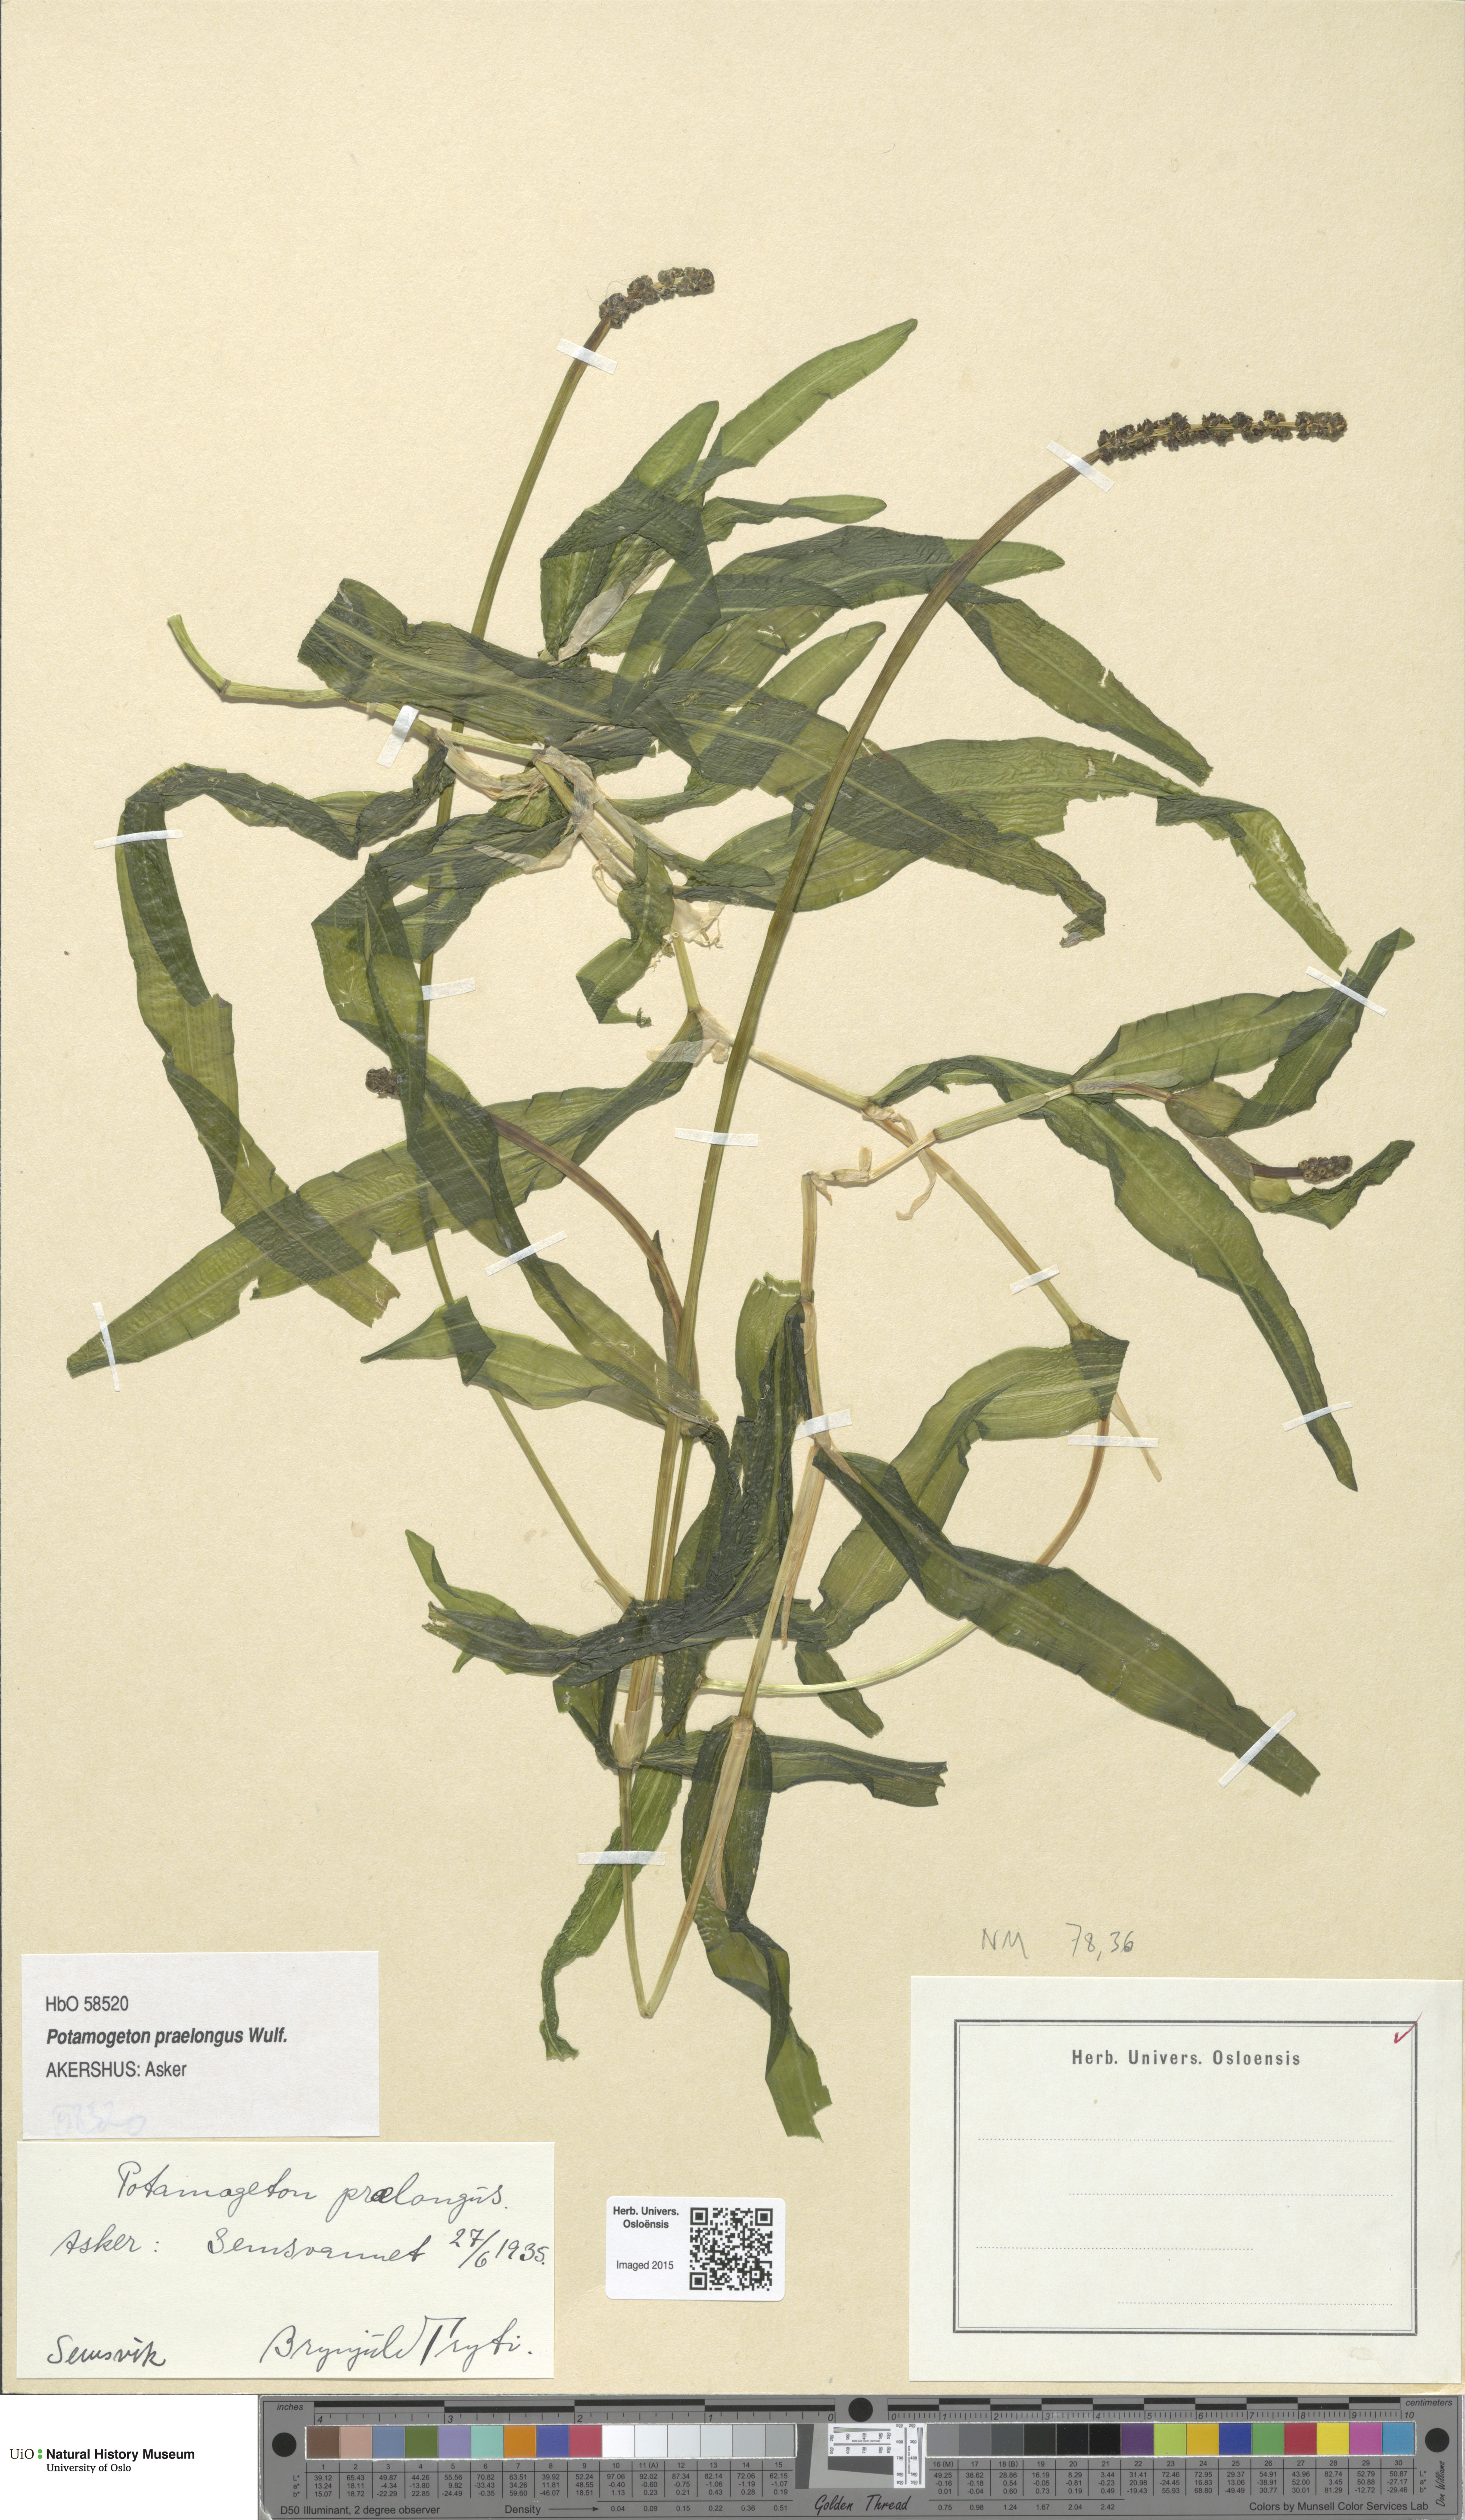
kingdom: Plantae
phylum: Tracheophyta
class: Liliopsida
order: Alismatales
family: Potamogetonaceae
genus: Potamogeton
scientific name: Potamogeton praelongus
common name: Long-stalked pondweed
